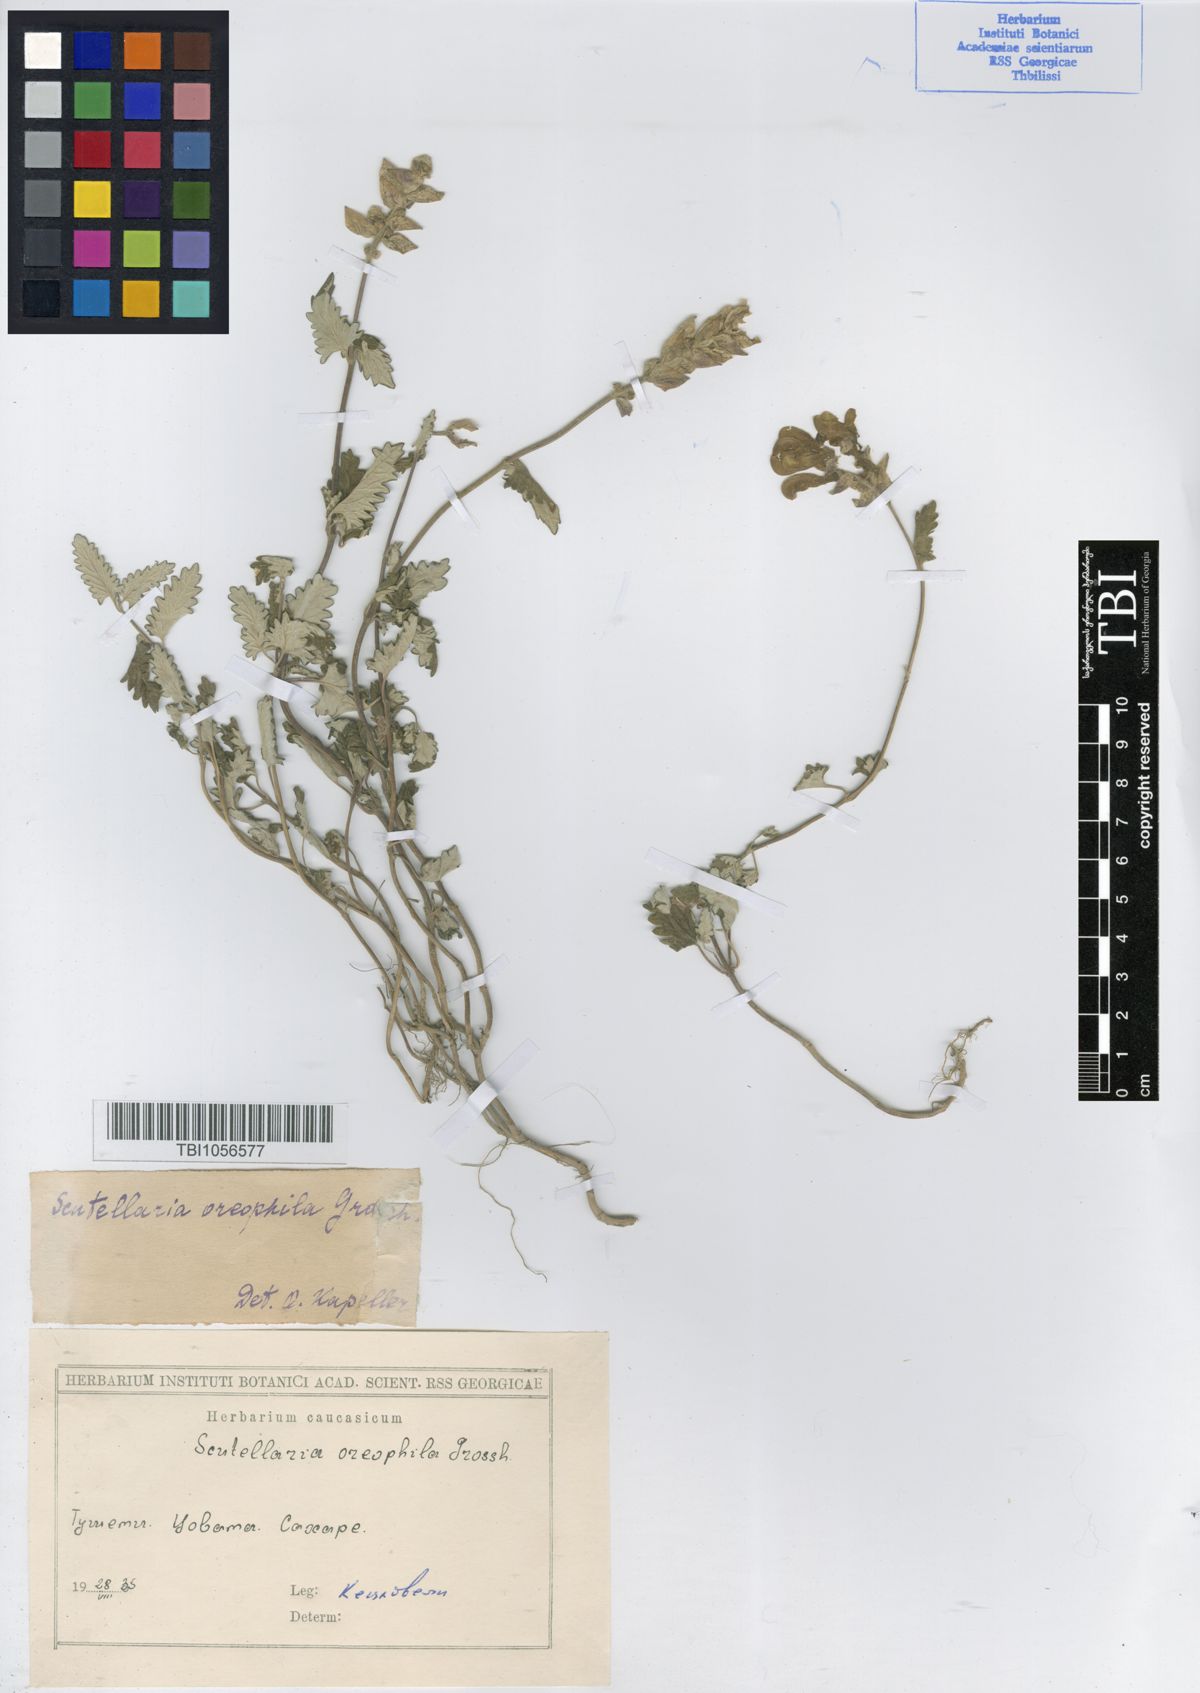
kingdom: Plantae
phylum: Tracheophyta
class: Magnoliopsida
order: Lamiales
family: Lamiaceae
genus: Scutellaria
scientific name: Scutellaria oreophila
